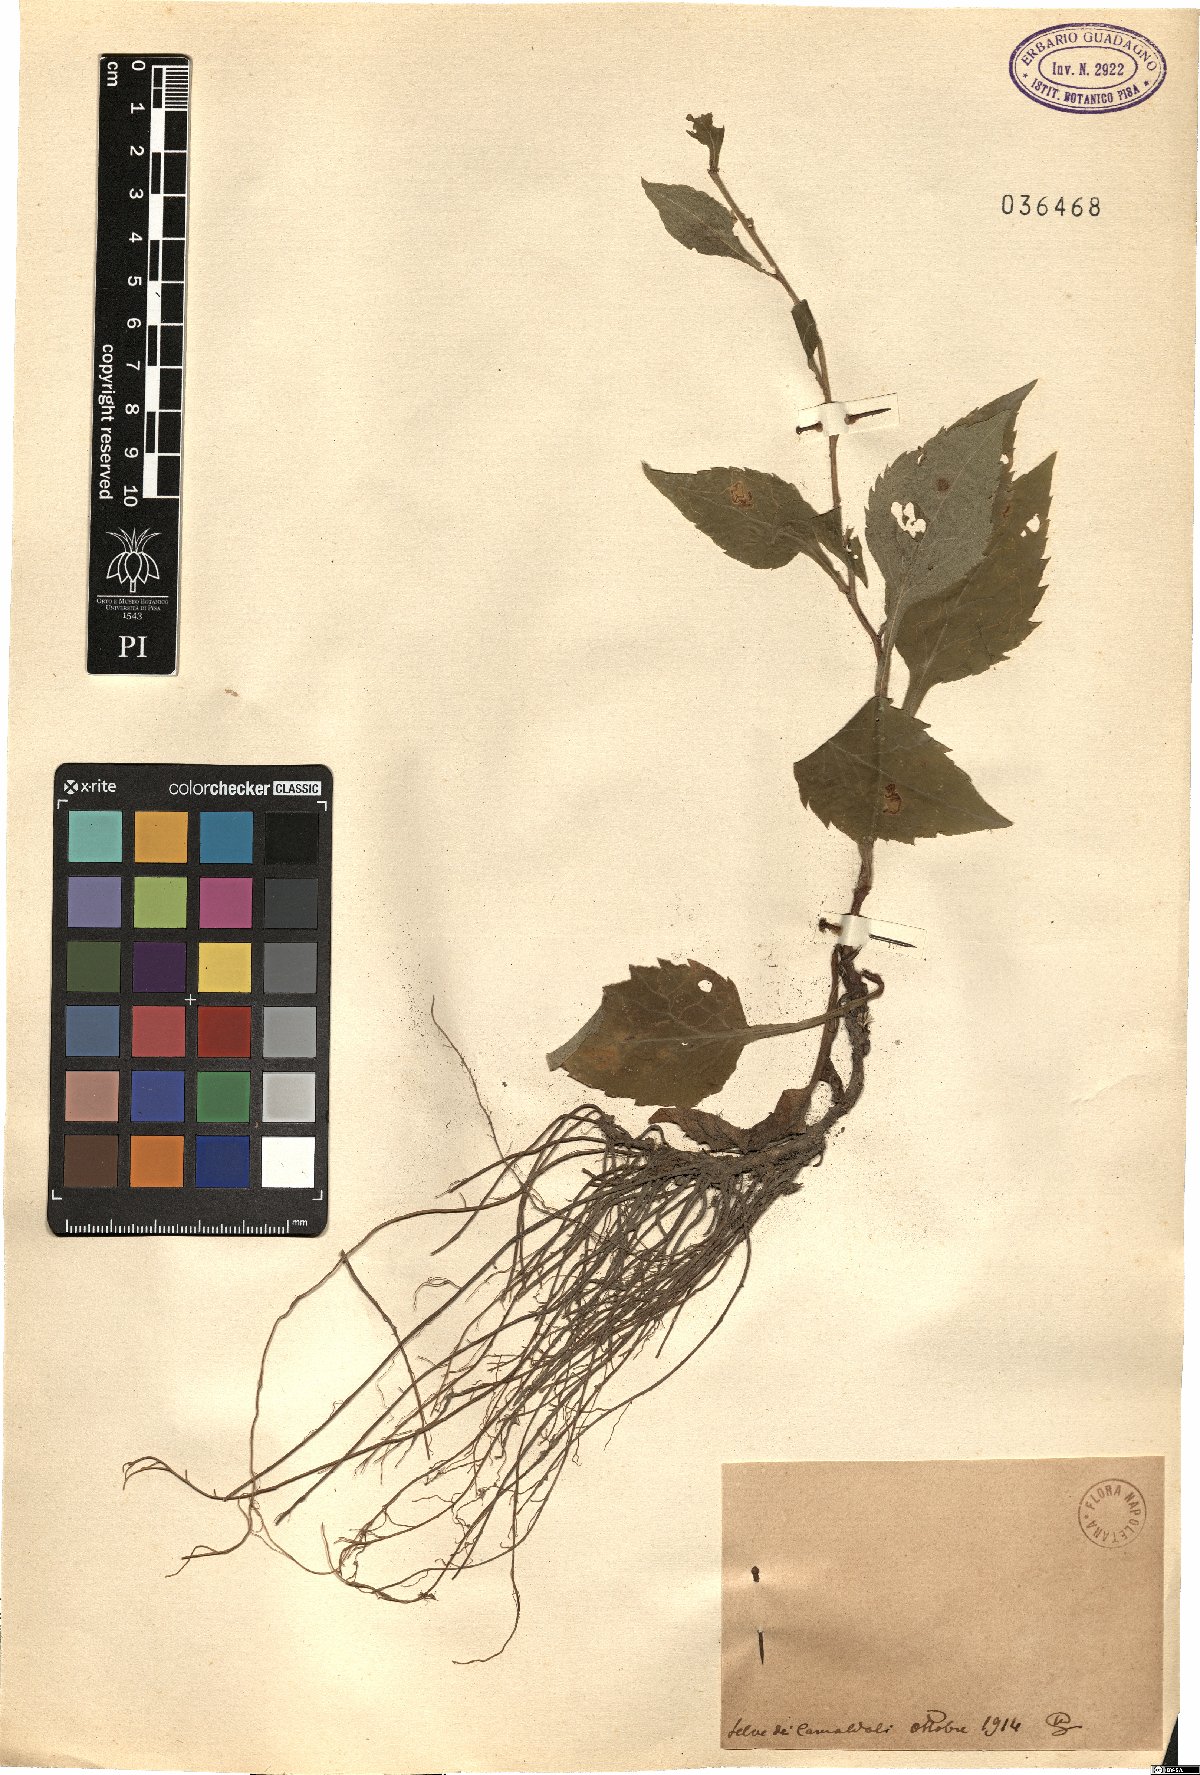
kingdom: Plantae
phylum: Tracheophyta
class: Magnoliopsida
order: Asterales
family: Asteraceae
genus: Solidago
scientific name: Solidago
